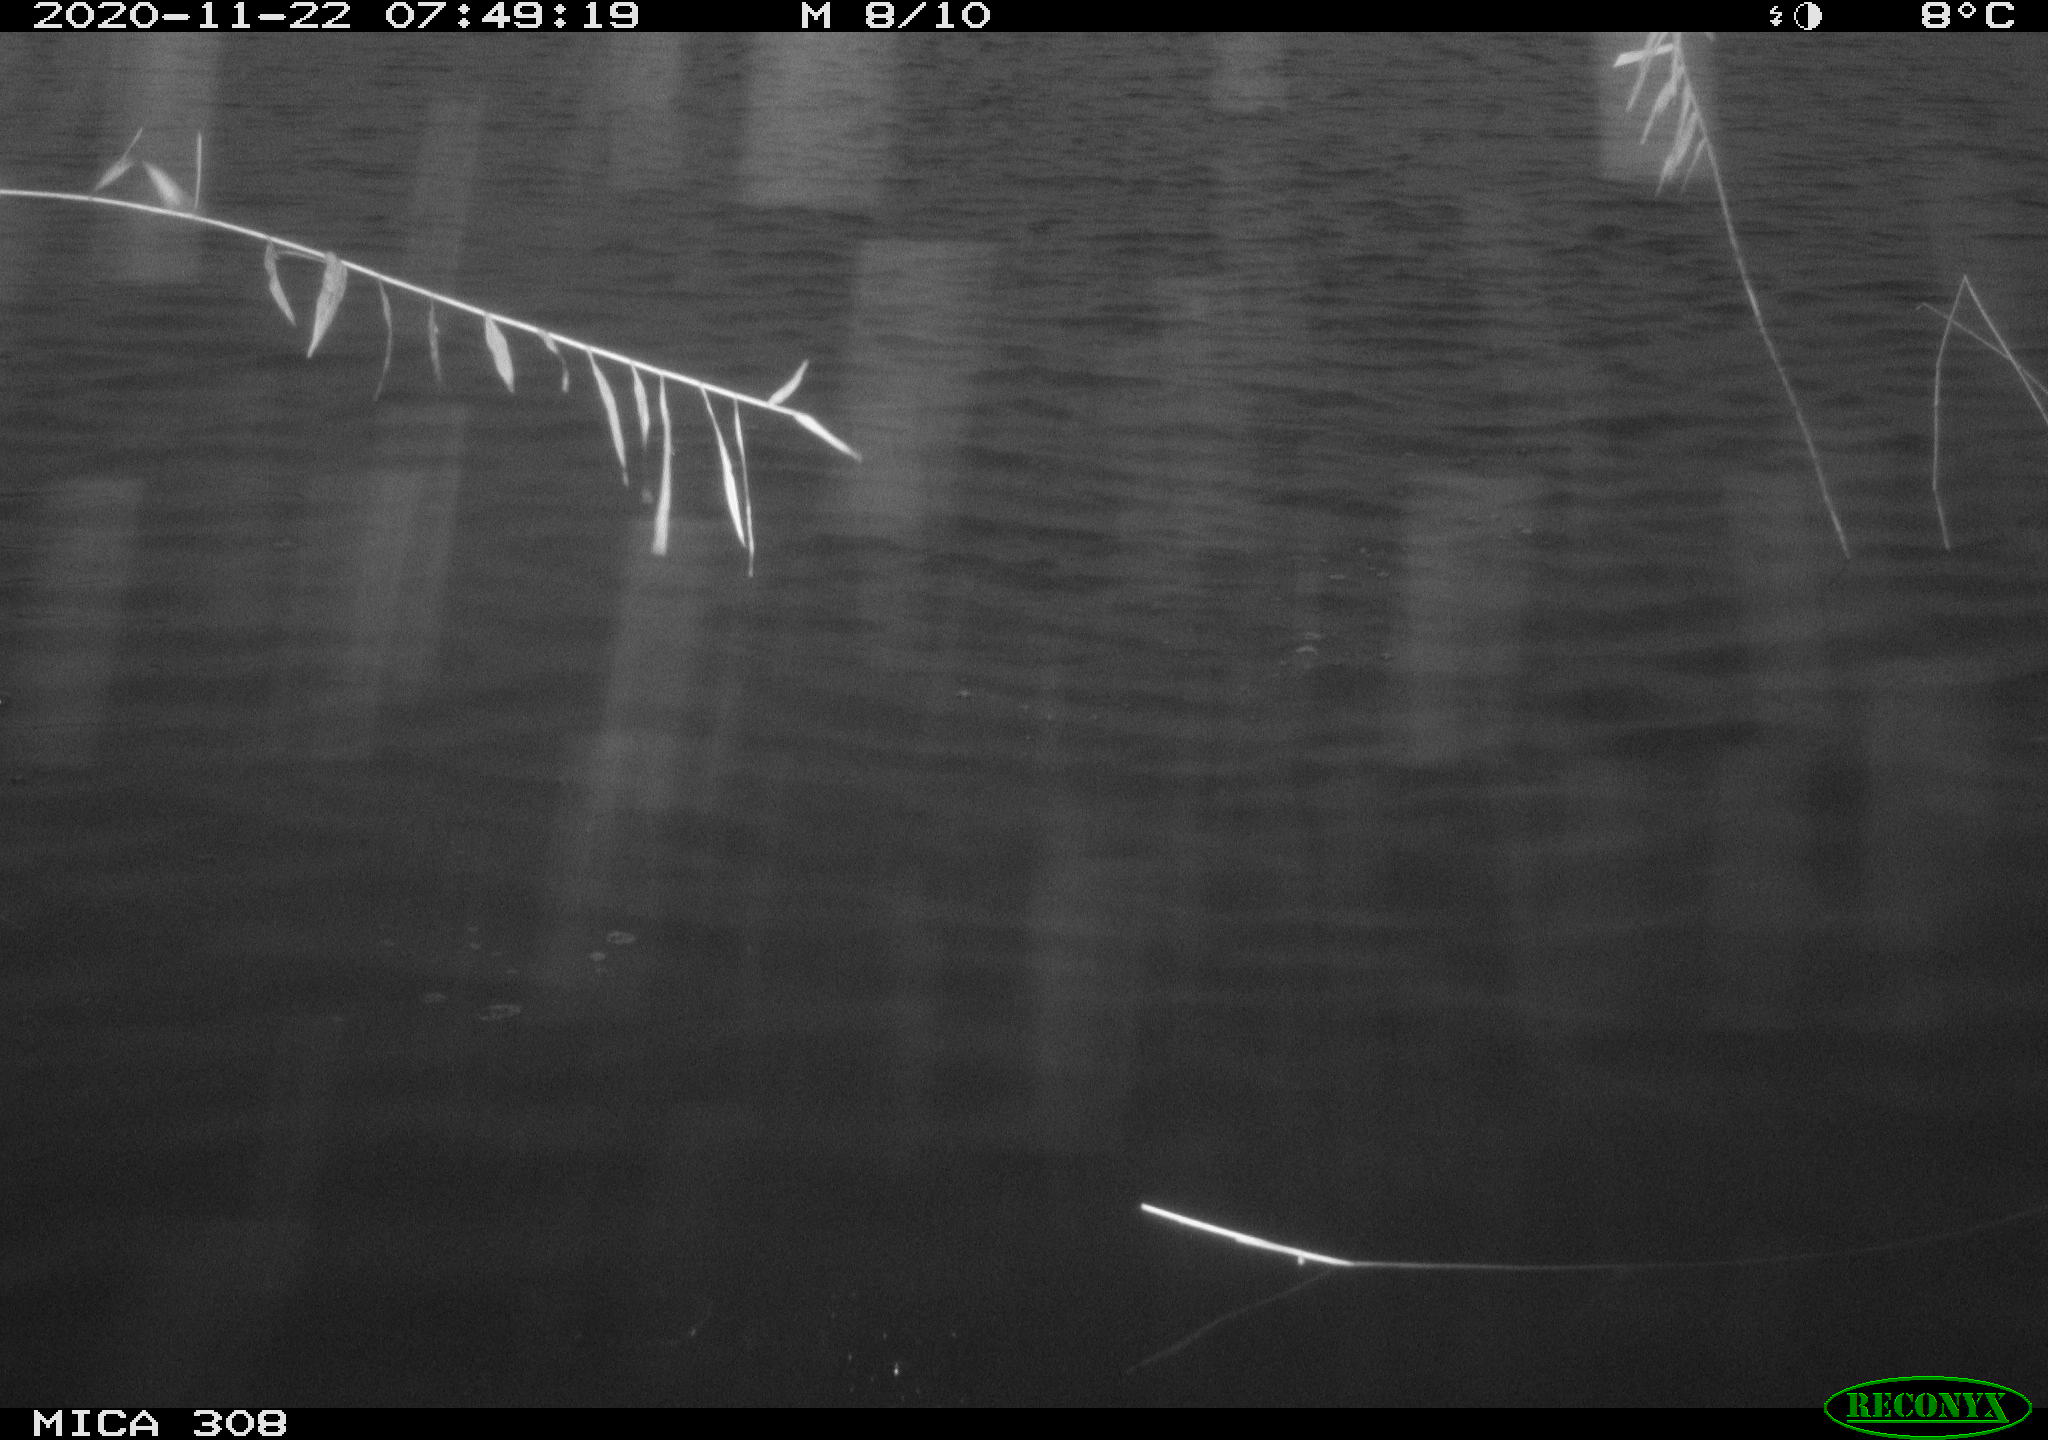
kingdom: Animalia
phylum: Chordata
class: Aves
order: Gruiformes
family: Rallidae
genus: Fulica
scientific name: Fulica atra
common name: Eurasian coot
